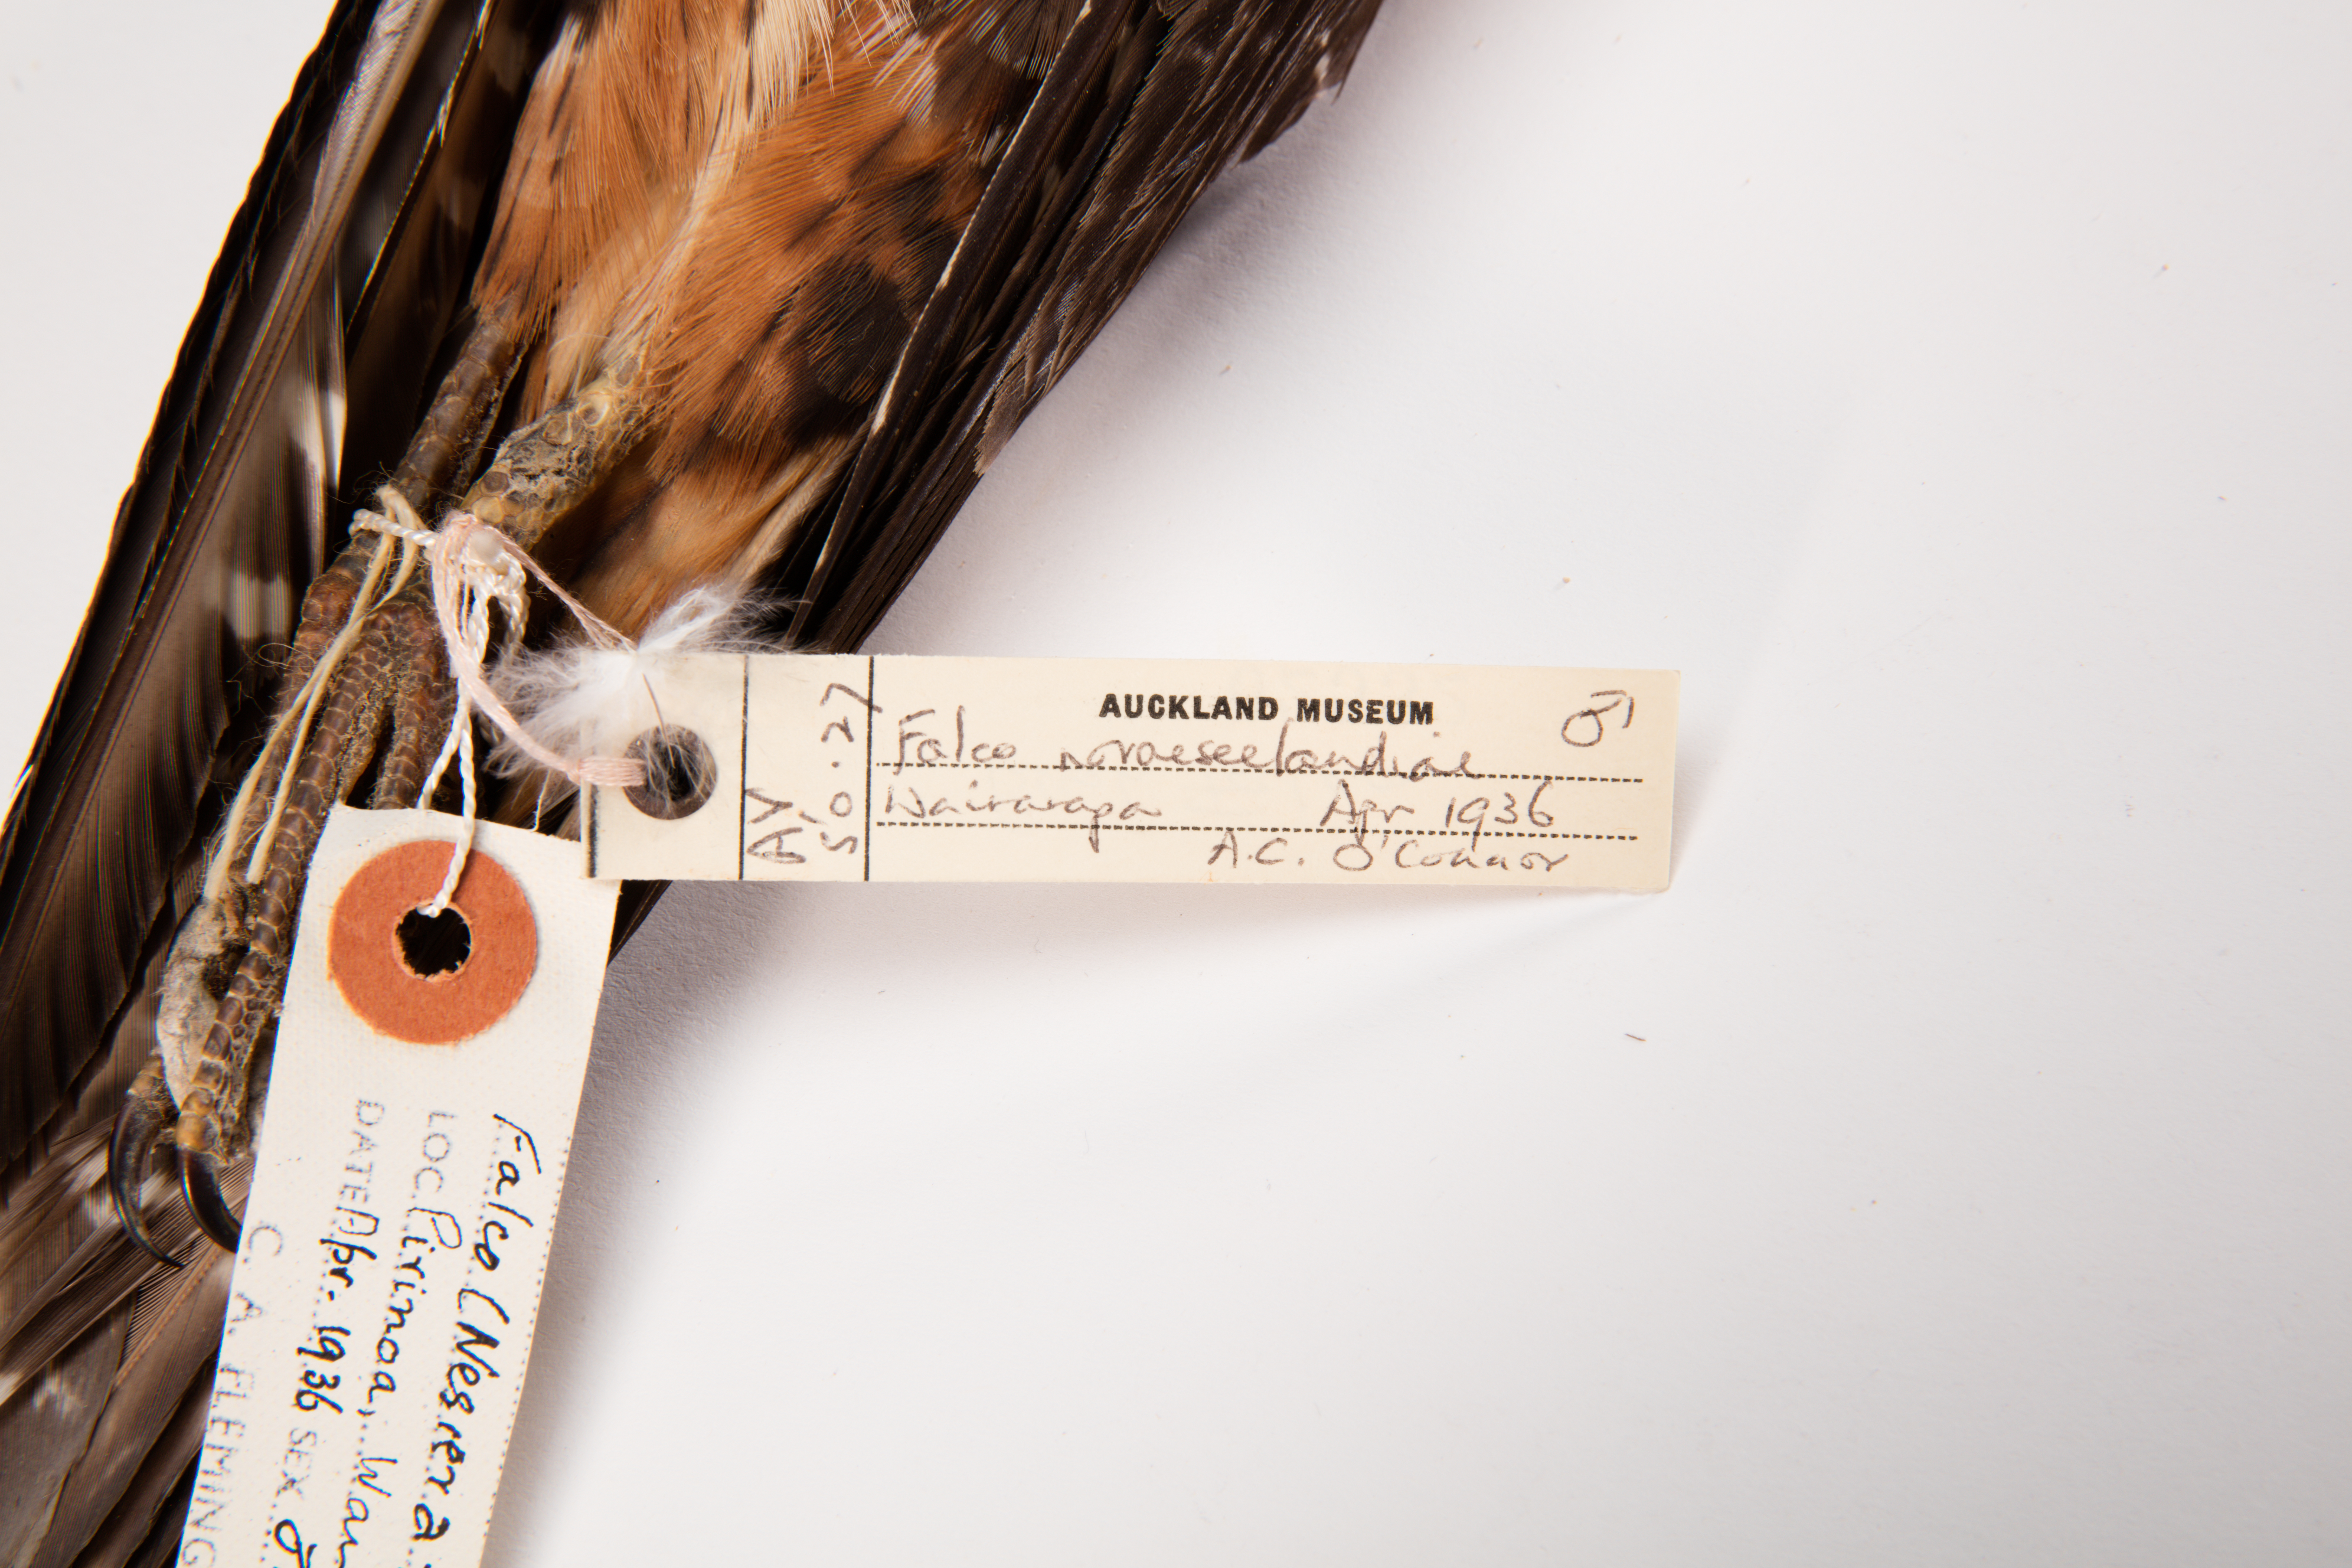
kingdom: Animalia
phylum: Chordata
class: Aves
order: Falconiformes
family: Falconidae
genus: Falco
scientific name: Falco novaeseelandiae
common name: New zealand falcon
